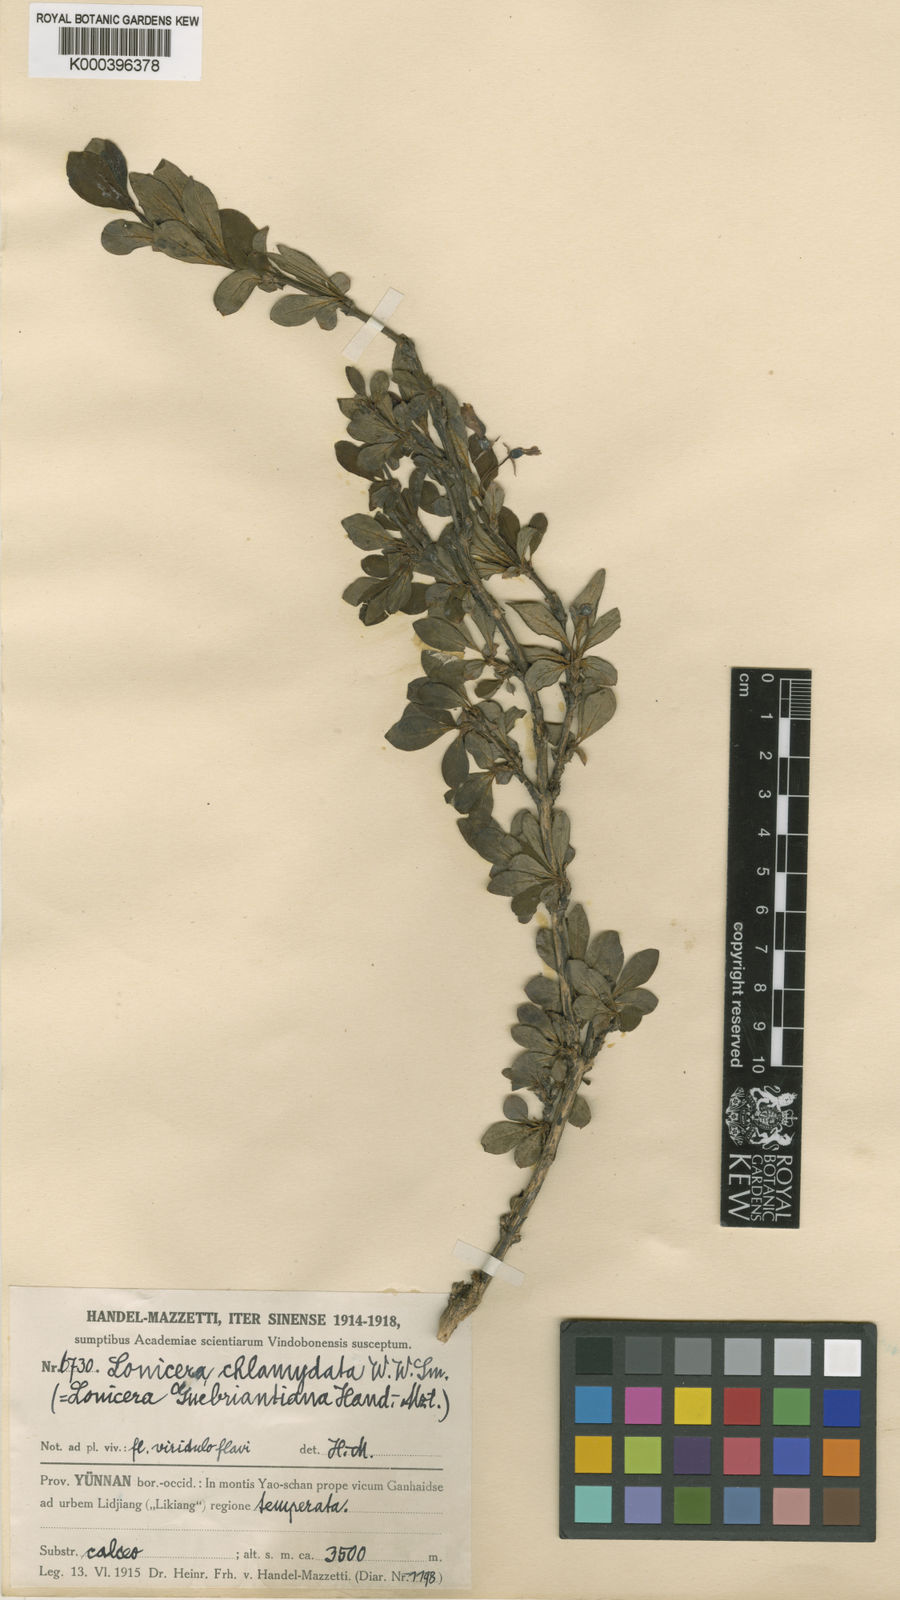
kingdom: Plantae
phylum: Tracheophyta
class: Magnoliopsida
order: Dipsacales
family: Caprifoliaceae
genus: Lonicera
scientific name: Lonicera tangutica
